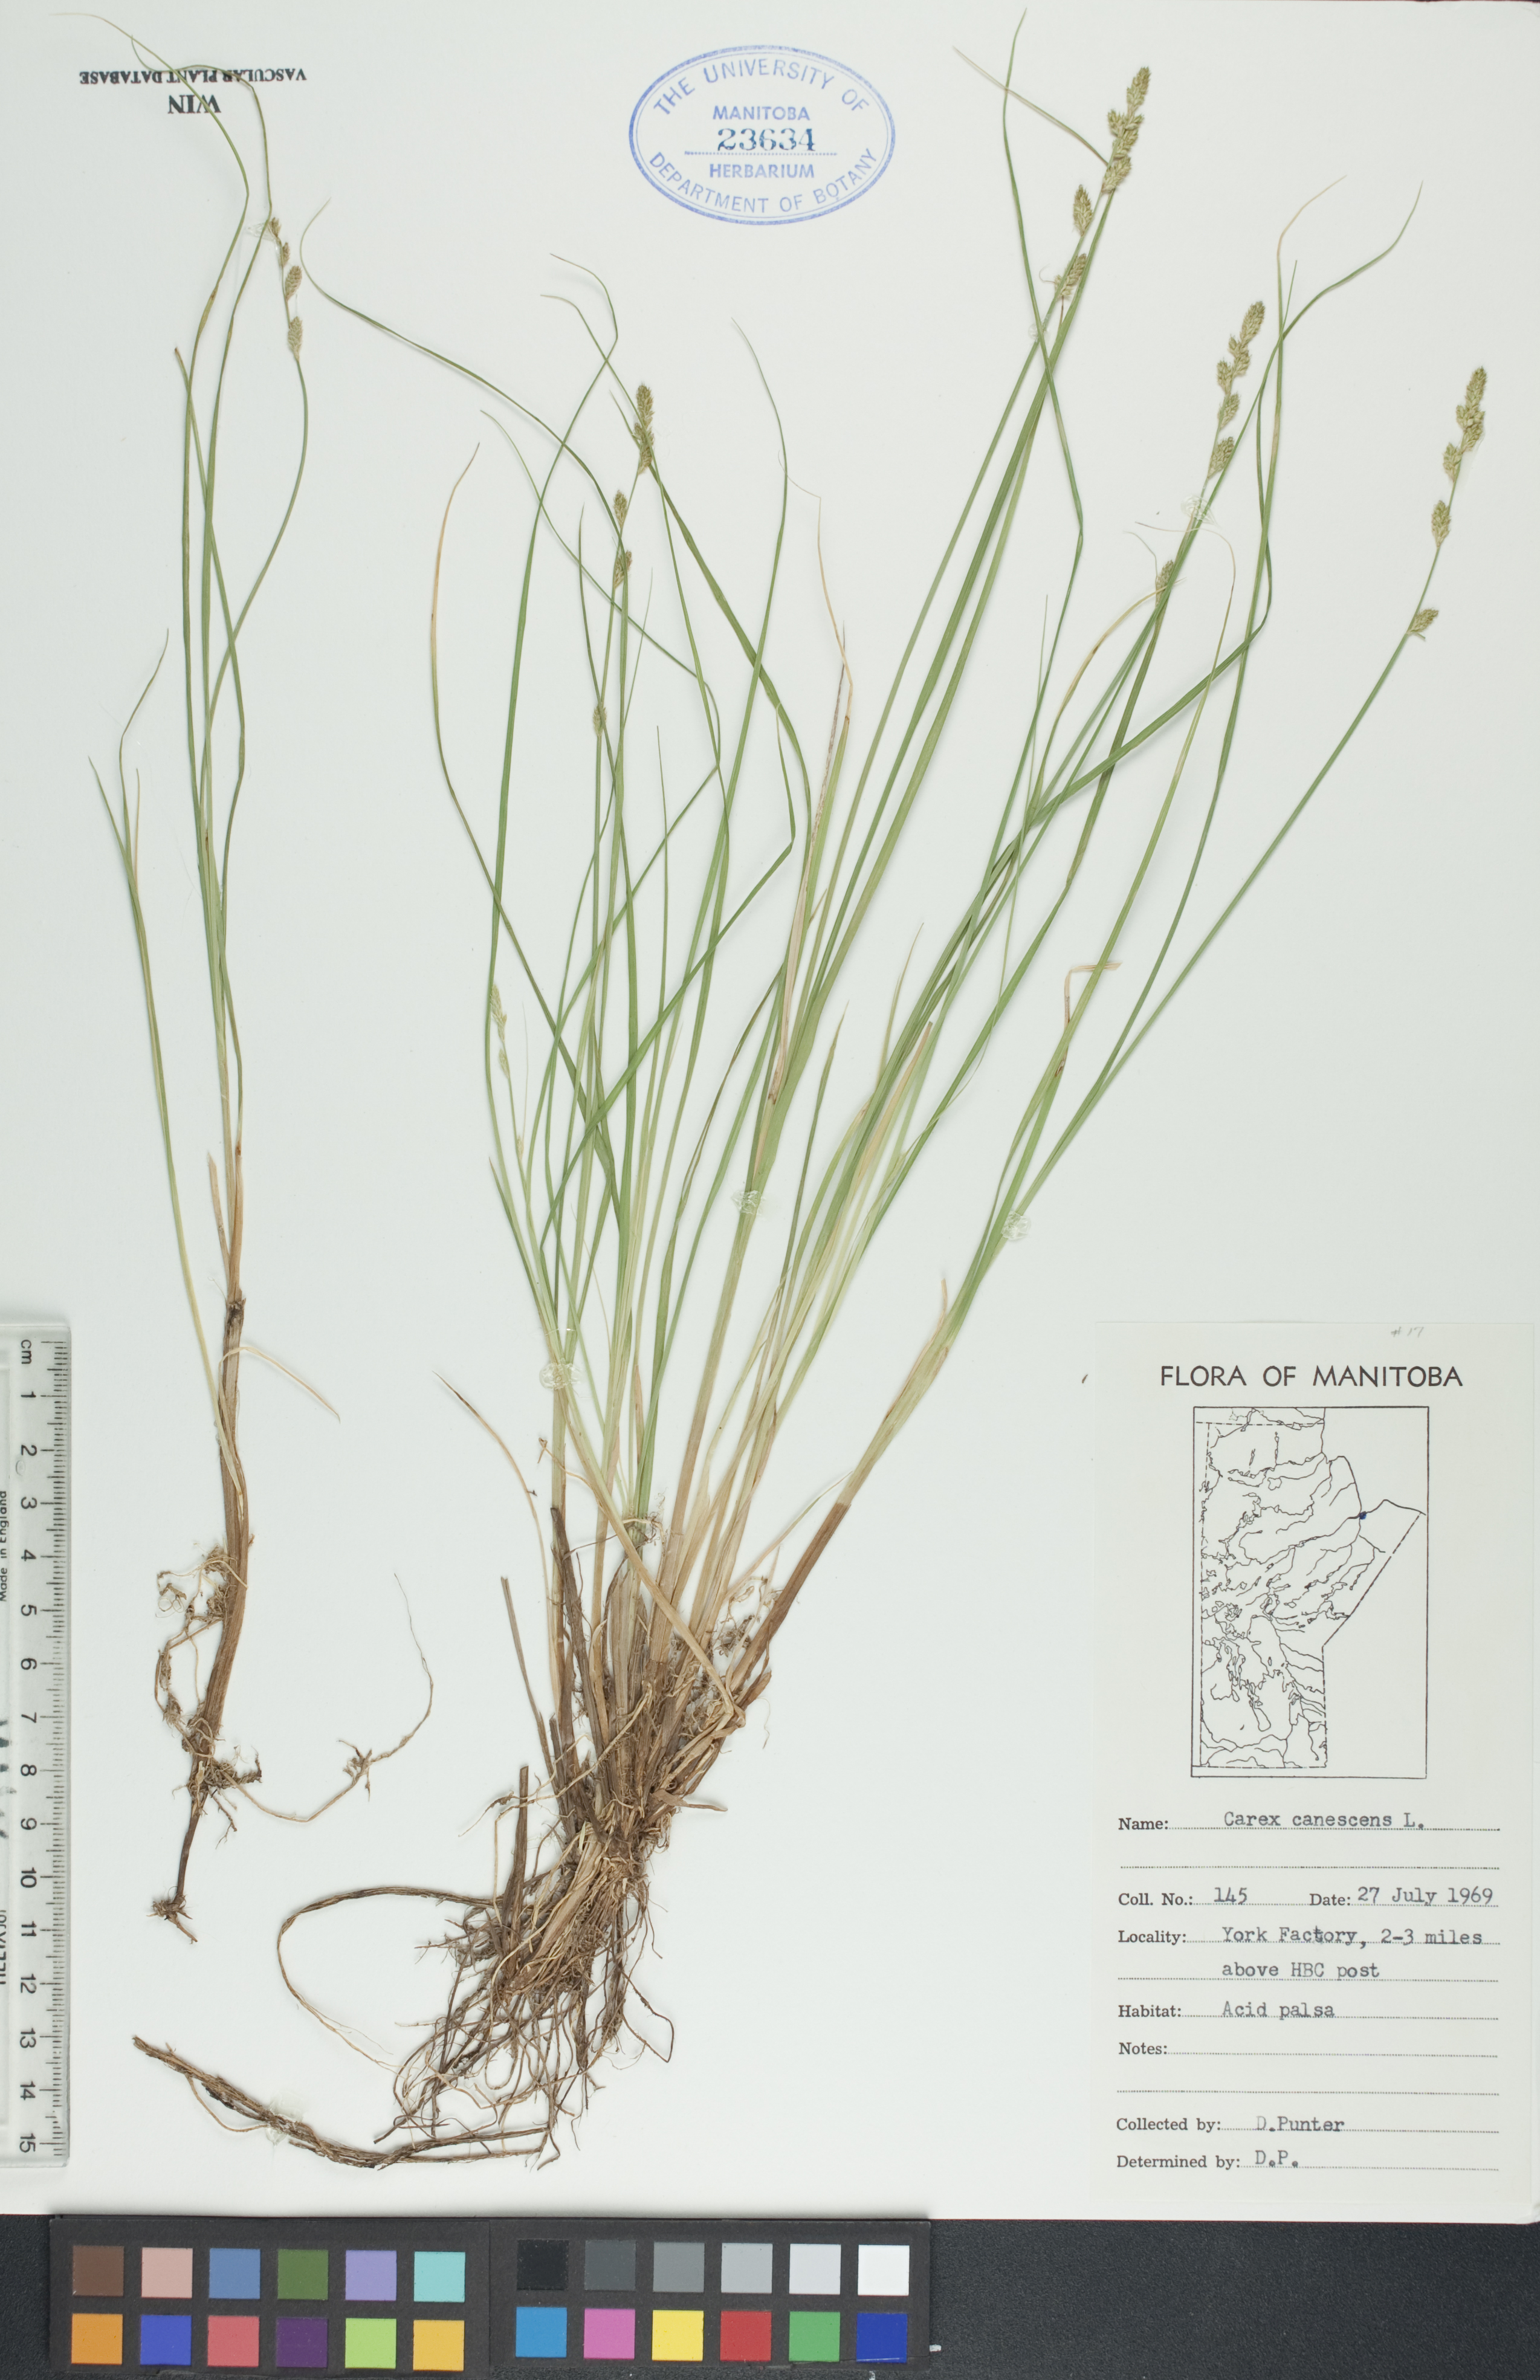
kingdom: Plantae
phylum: Tracheophyta
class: Liliopsida
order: Poales
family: Cyperaceae
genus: Carex
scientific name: Carex canescens
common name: White sedge
